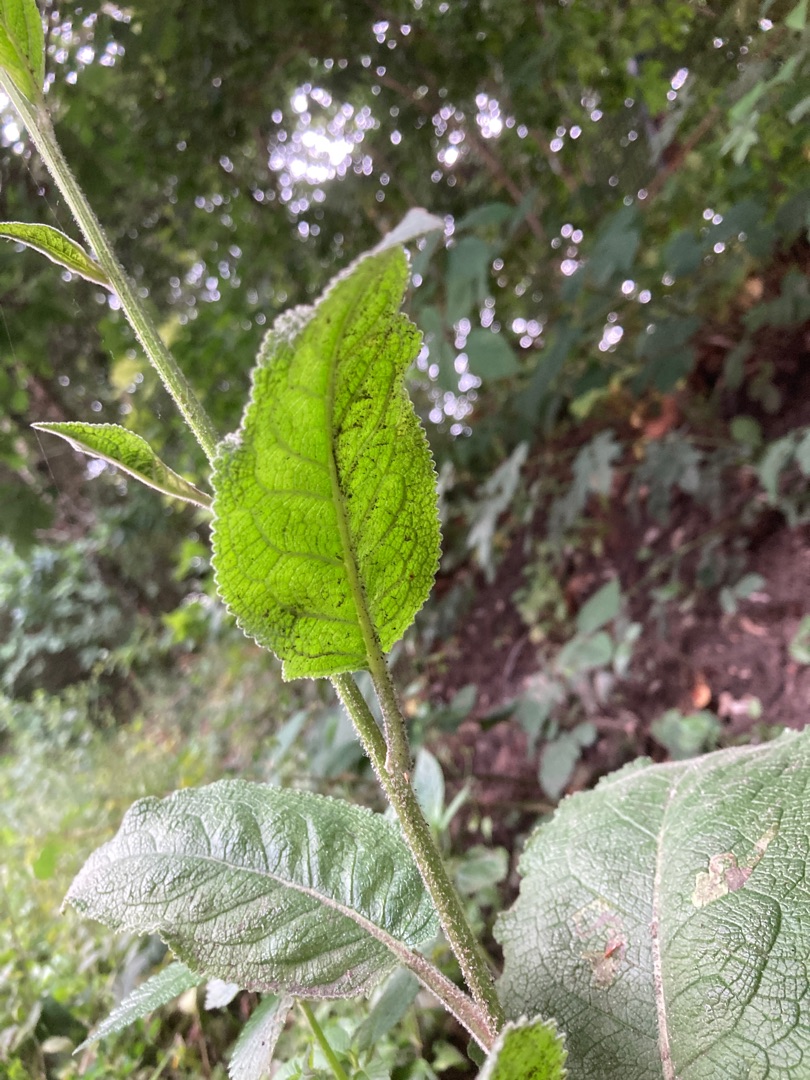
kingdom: Plantae
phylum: Tracheophyta
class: Magnoliopsida
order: Lamiales
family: Scrophulariaceae
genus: Verbascum
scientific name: Verbascum nigrum
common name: Mørk kongelys
